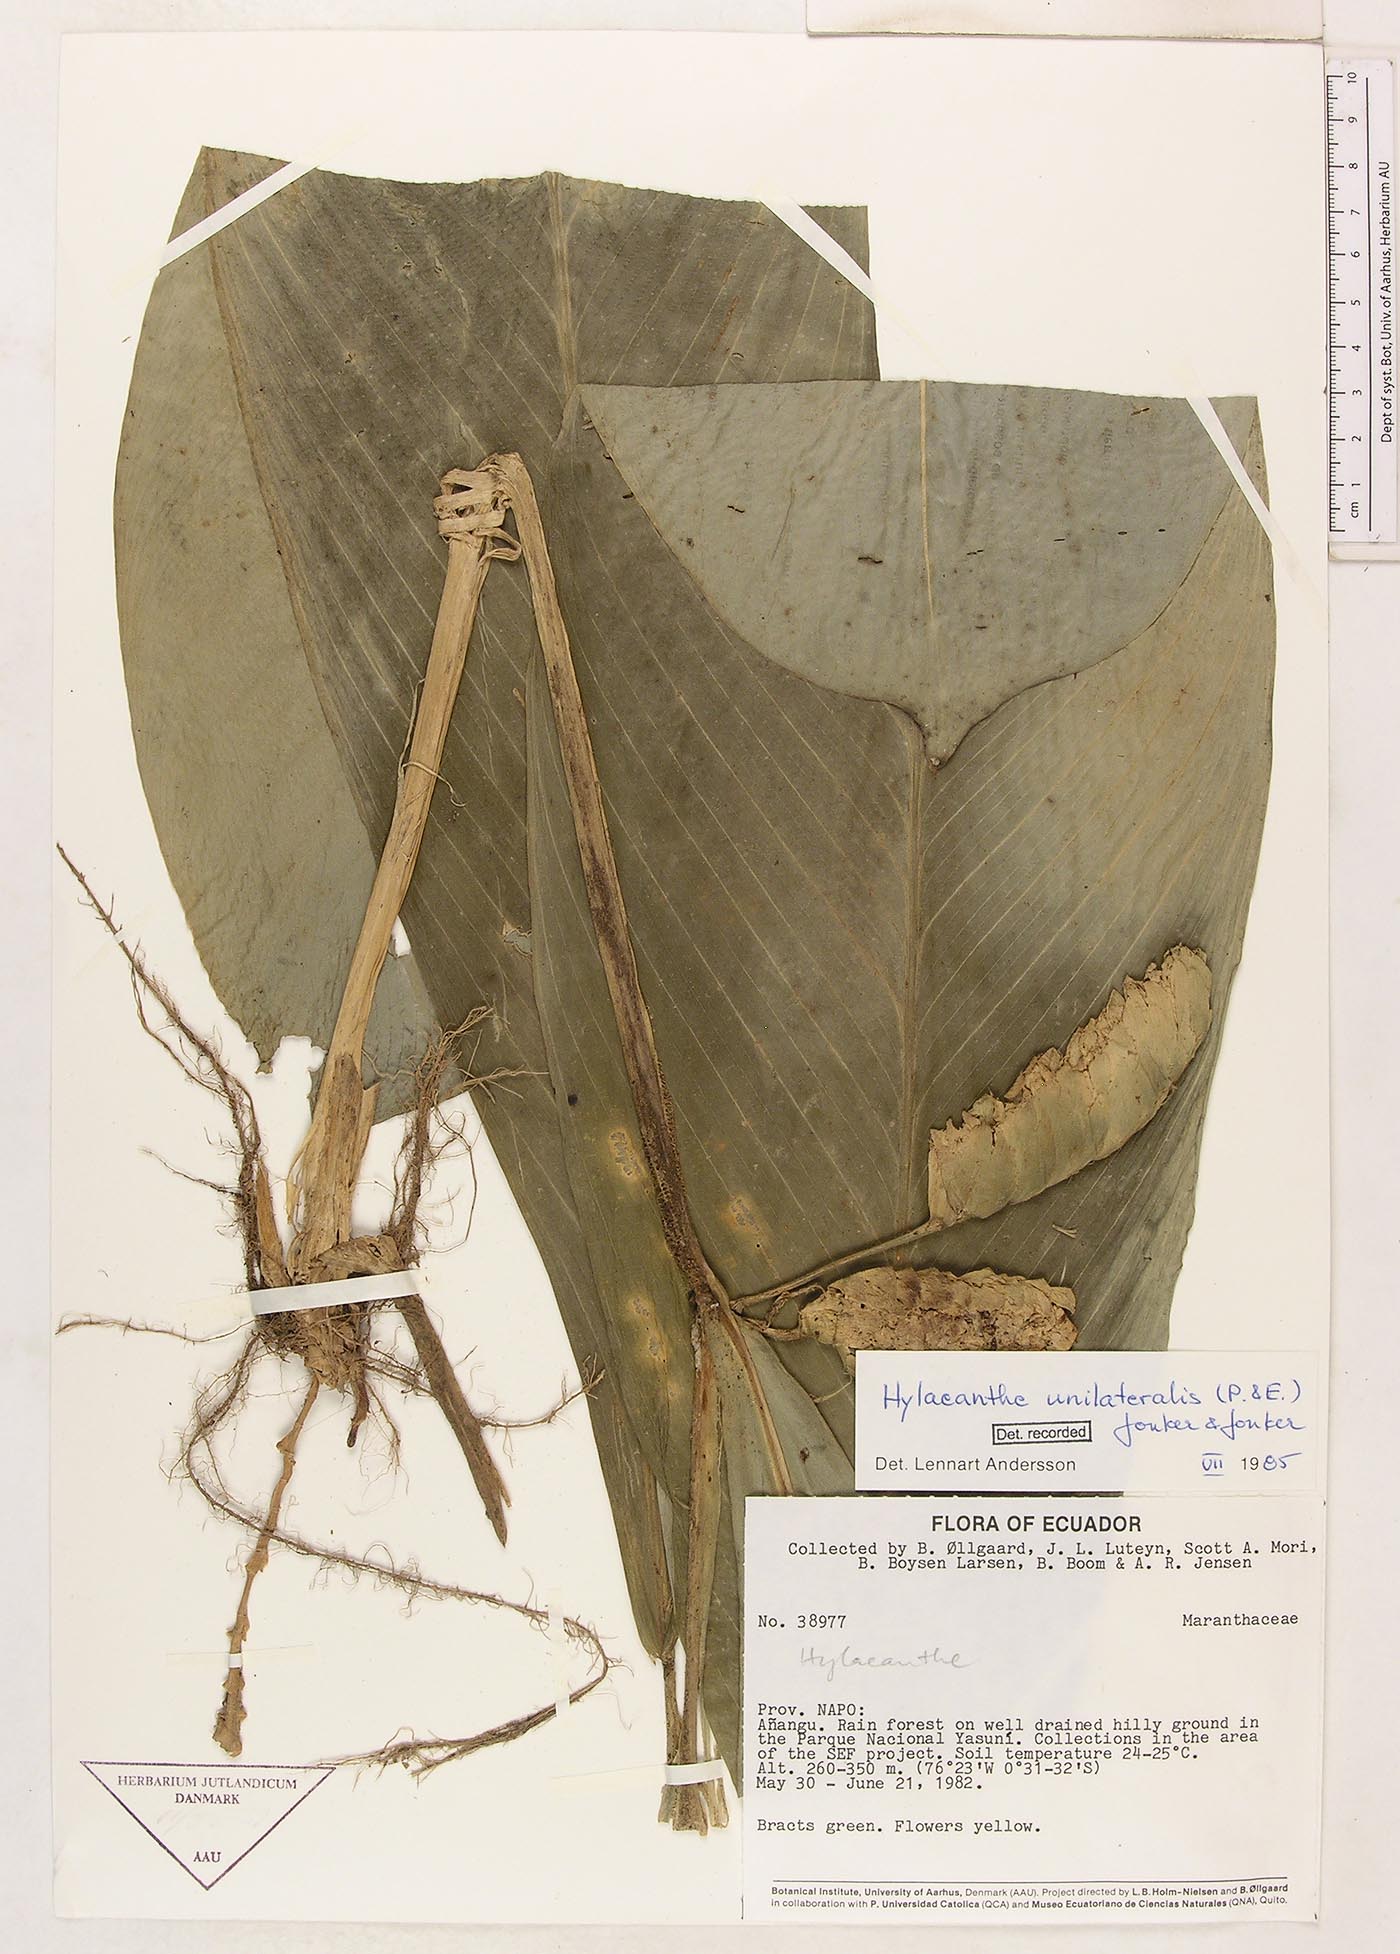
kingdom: Plantae
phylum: Tracheophyta
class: Liliopsida
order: Zingiberales
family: Marantaceae
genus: Hylaeanthe
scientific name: Hylaeanthe unilateralis
